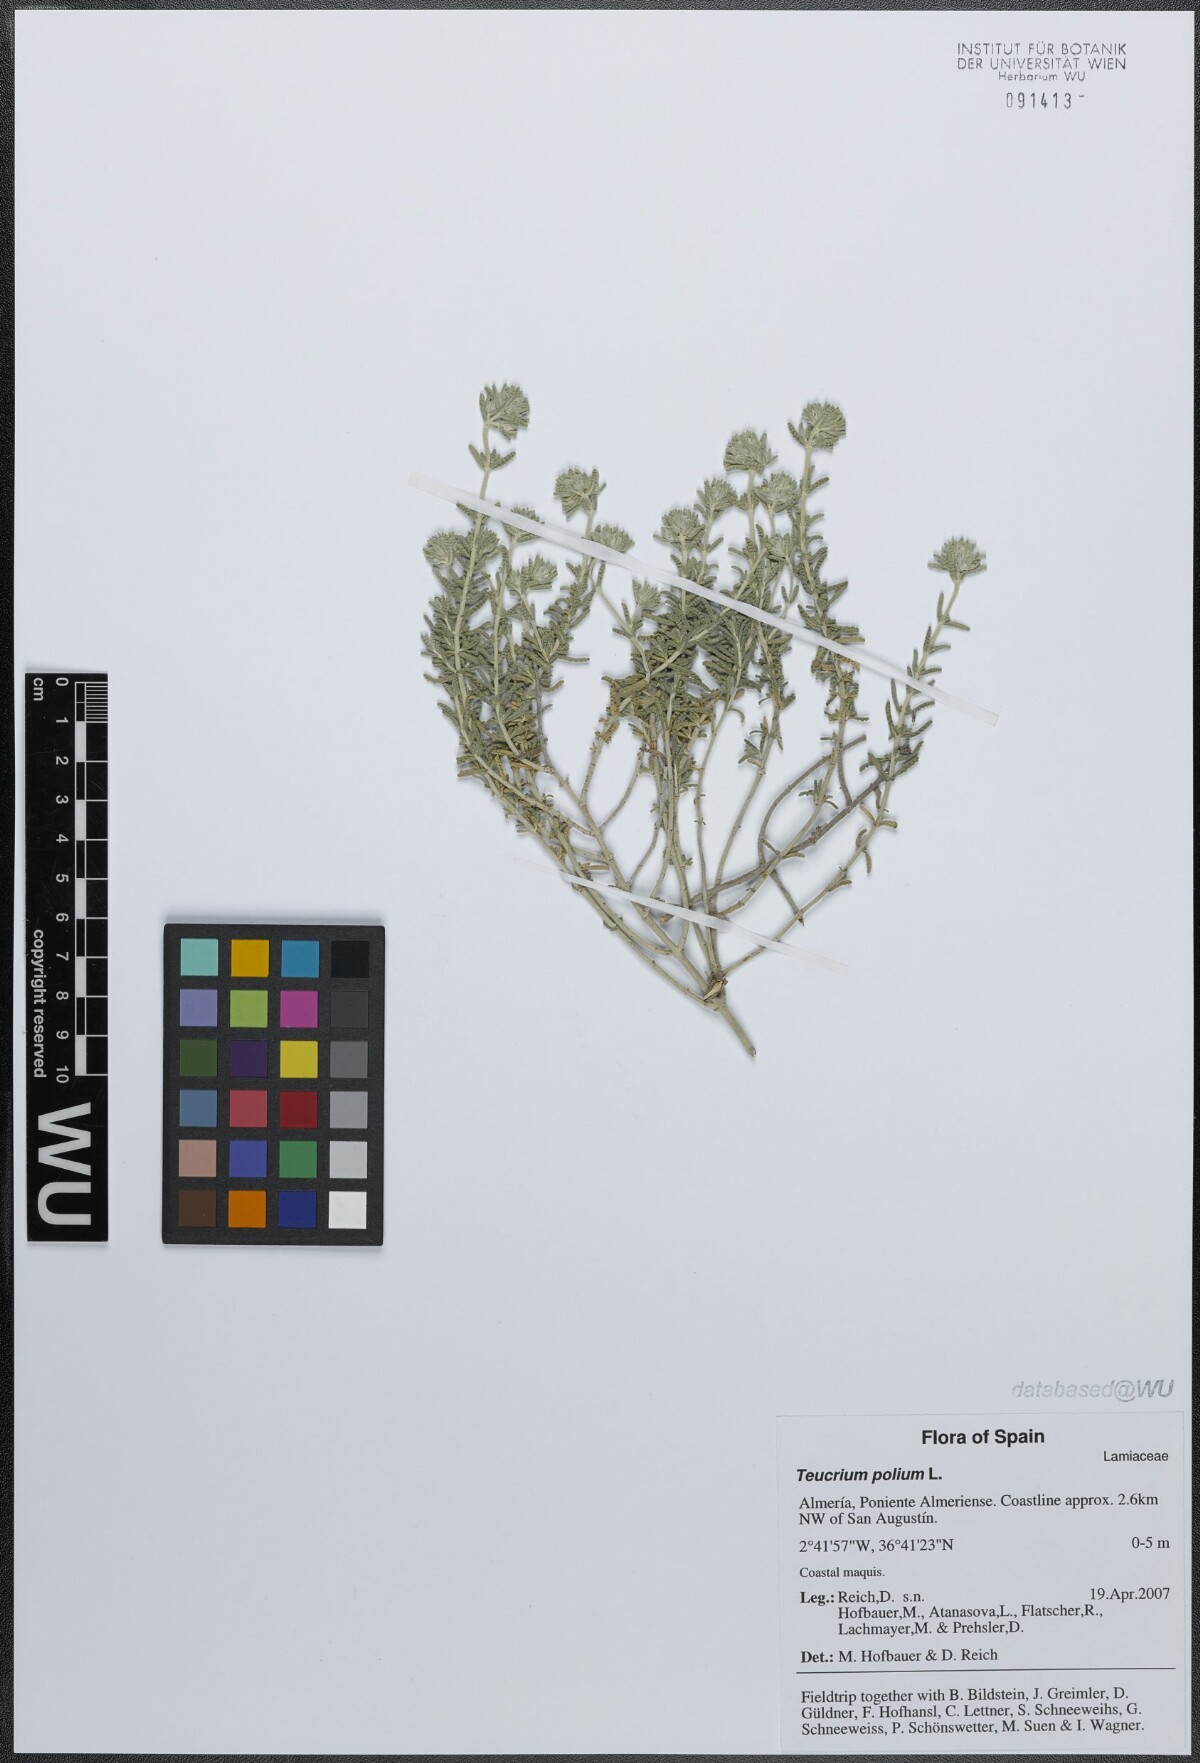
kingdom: Plantae
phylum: Tracheophyta
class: Magnoliopsida
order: Lamiales
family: Lamiaceae
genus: Teucrium
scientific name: Teucrium polium
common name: Poley
